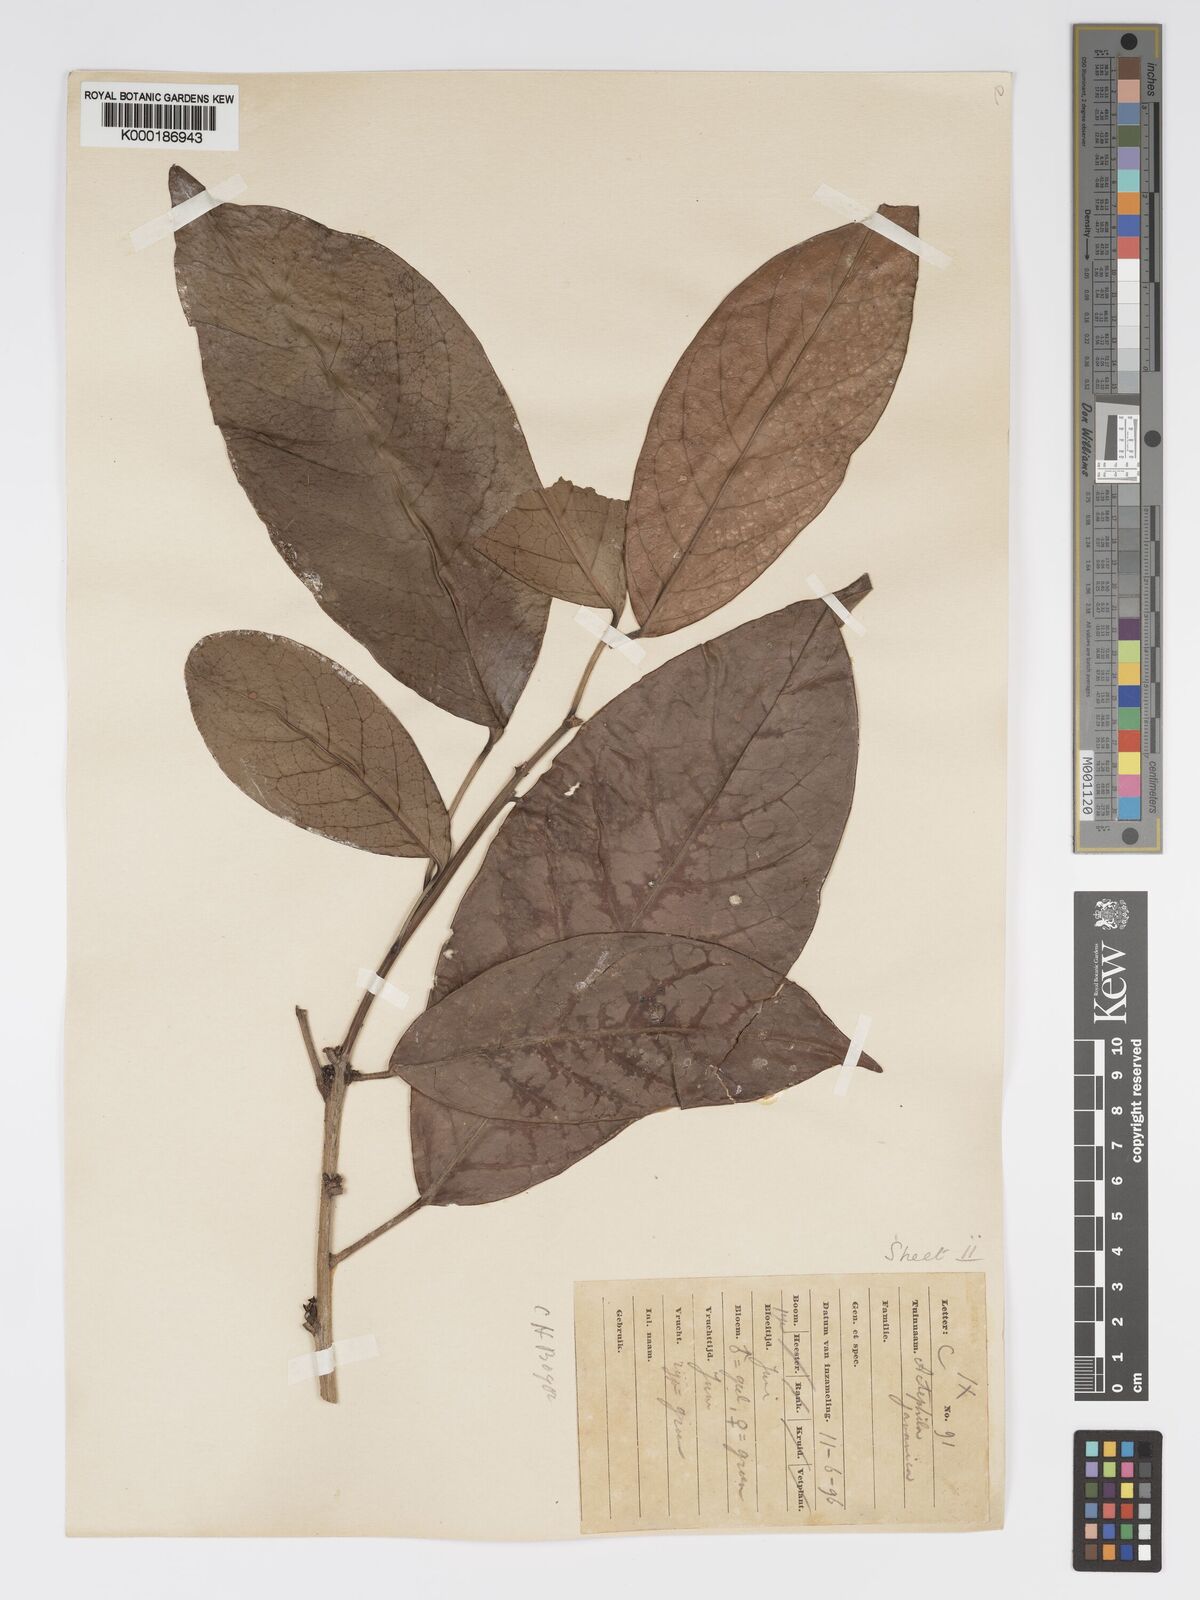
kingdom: Plantae
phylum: Tracheophyta
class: Magnoliopsida
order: Malpighiales
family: Phyllanthaceae
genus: Actephila
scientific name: Actephila
